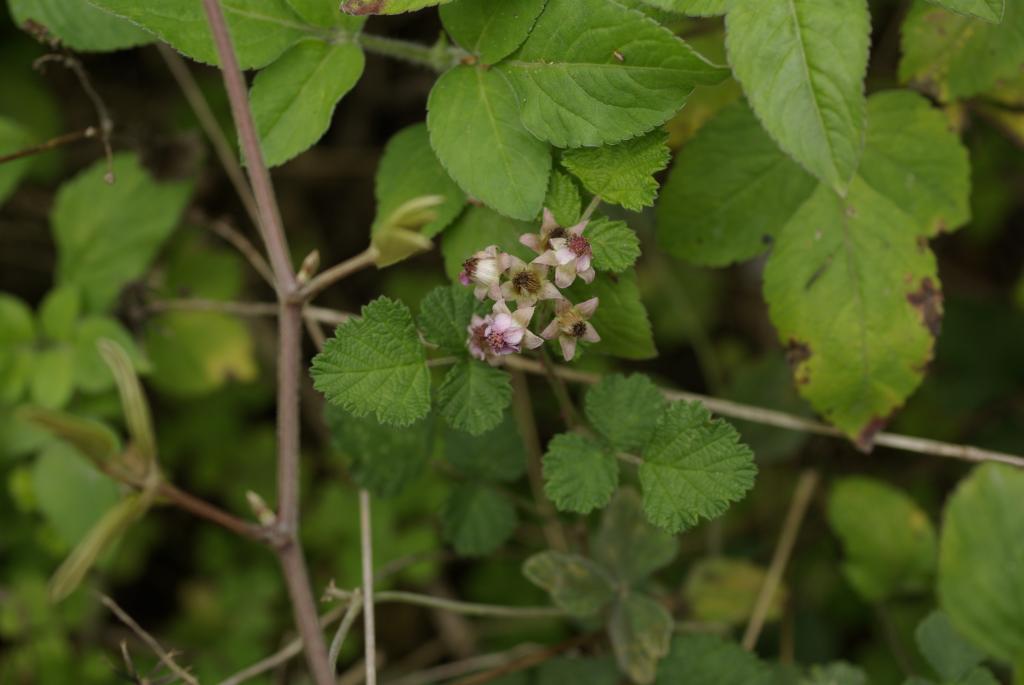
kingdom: Plantae
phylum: Tracheophyta
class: Magnoliopsida
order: Rosales
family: Rosaceae
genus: Rubus
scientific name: Rubus parvifolius
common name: Threeleaf blackberry
